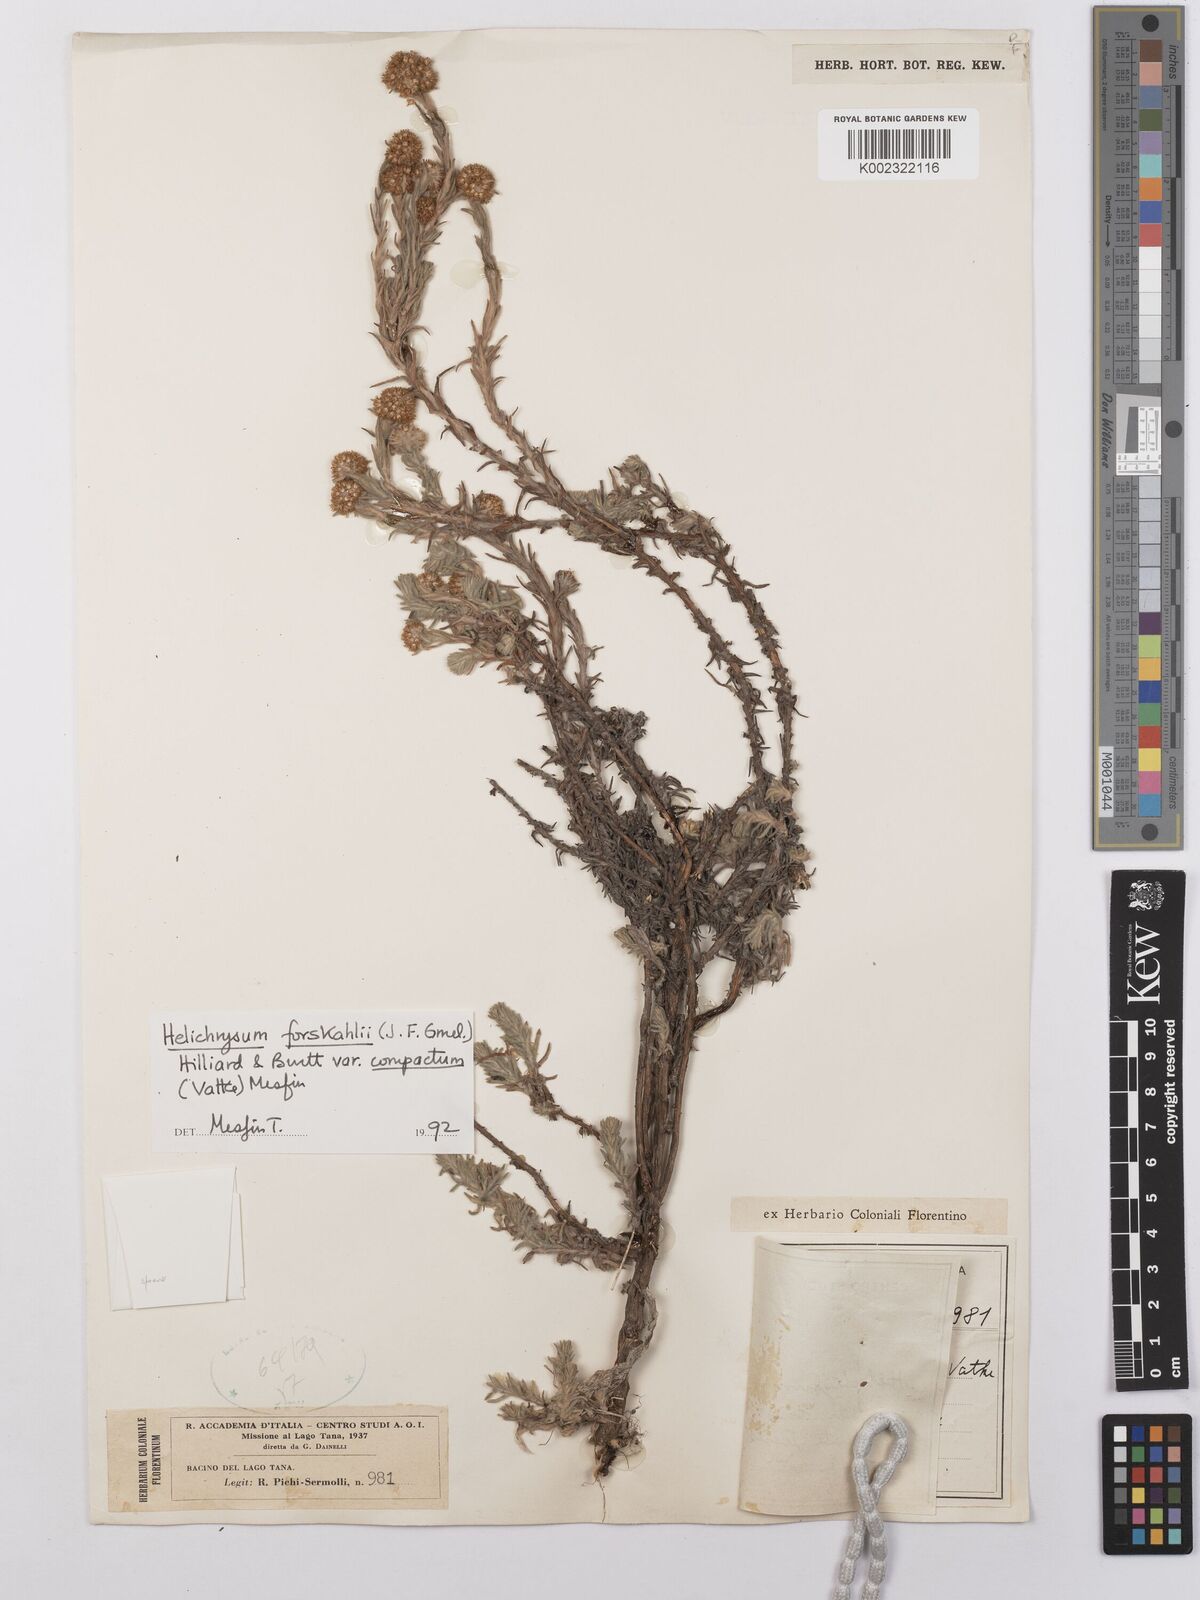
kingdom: Plantae
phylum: Tracheophyta
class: Magnoliopsida
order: Asterales
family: Asteraceae
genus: Helichrysum
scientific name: Helichrysum forskahlii
